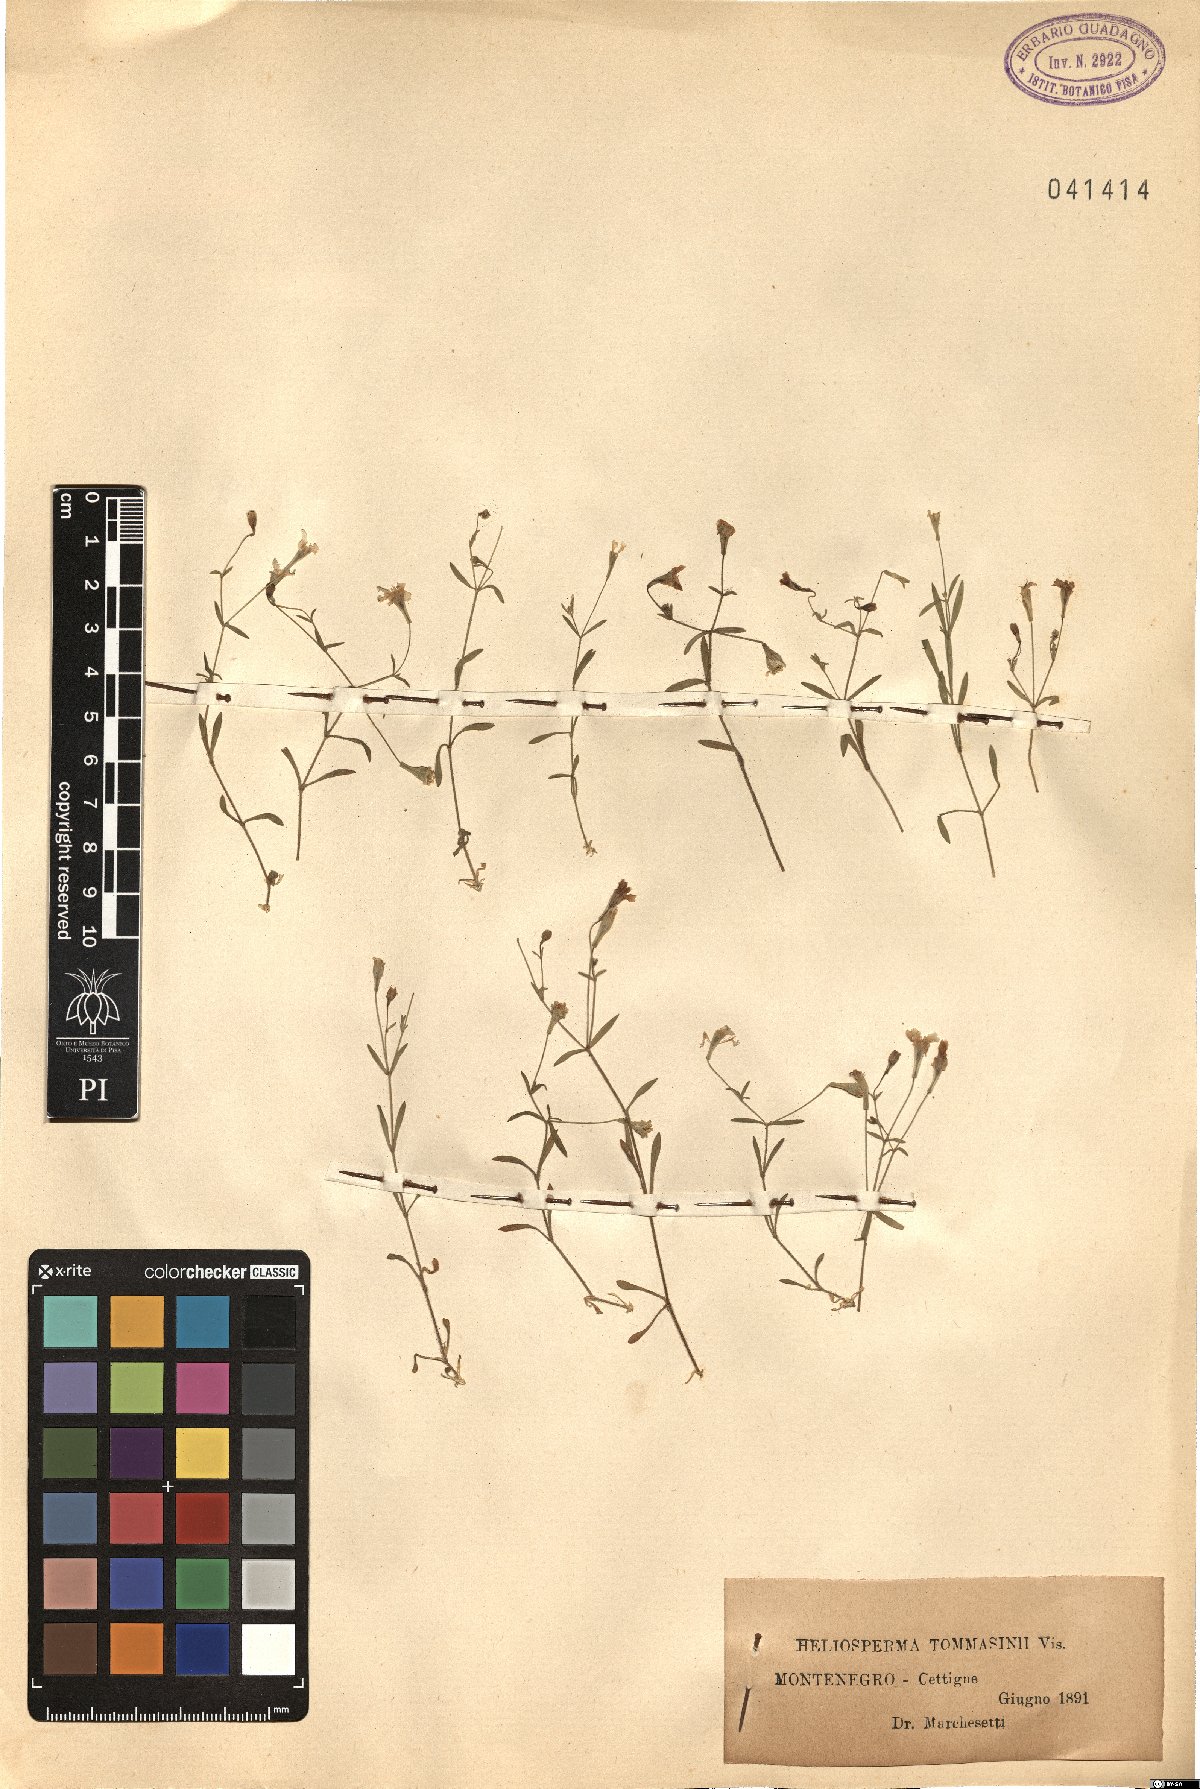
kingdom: Plantae
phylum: Tracheophyta
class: Magnoliopsida
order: Caryophyllales
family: Caryophyllaceae
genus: Heliosperma
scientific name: Heliosperma pusillum
